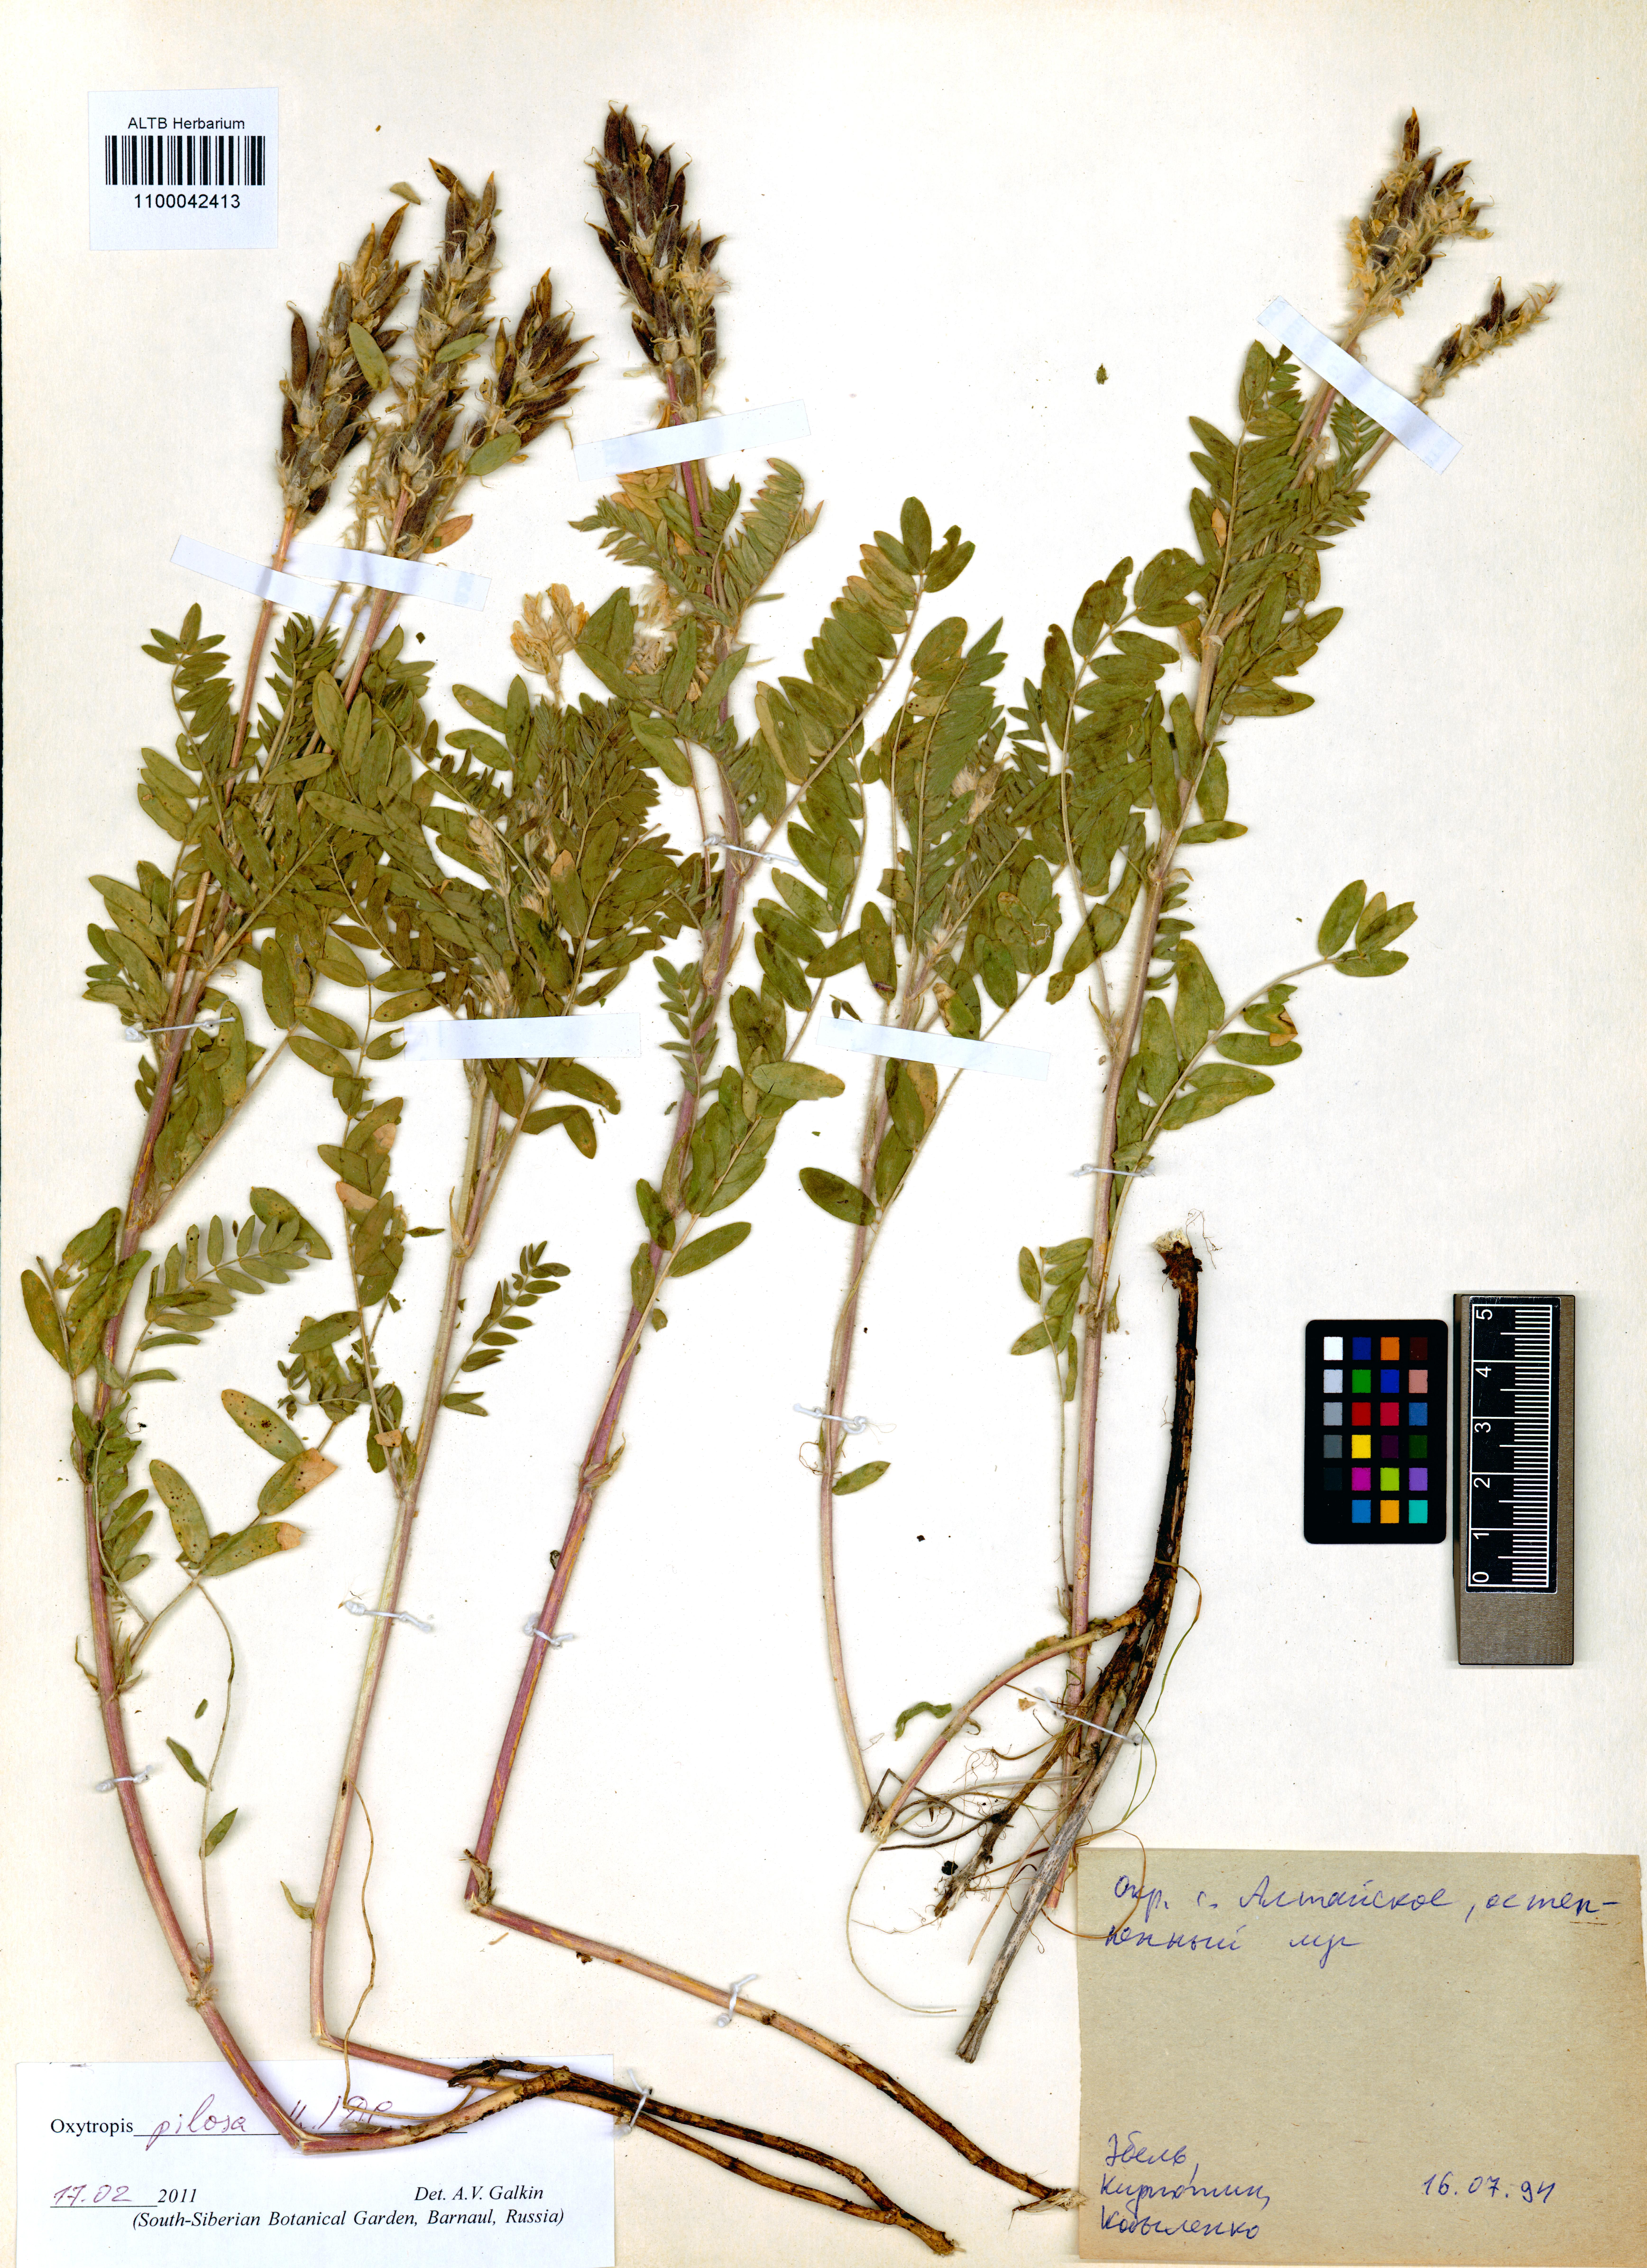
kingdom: Plantae
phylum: Tracheophyta
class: Magnoliopsida
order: Fabales
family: Fabaceae
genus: Oxytropis
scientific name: Oxytropis pilosa
